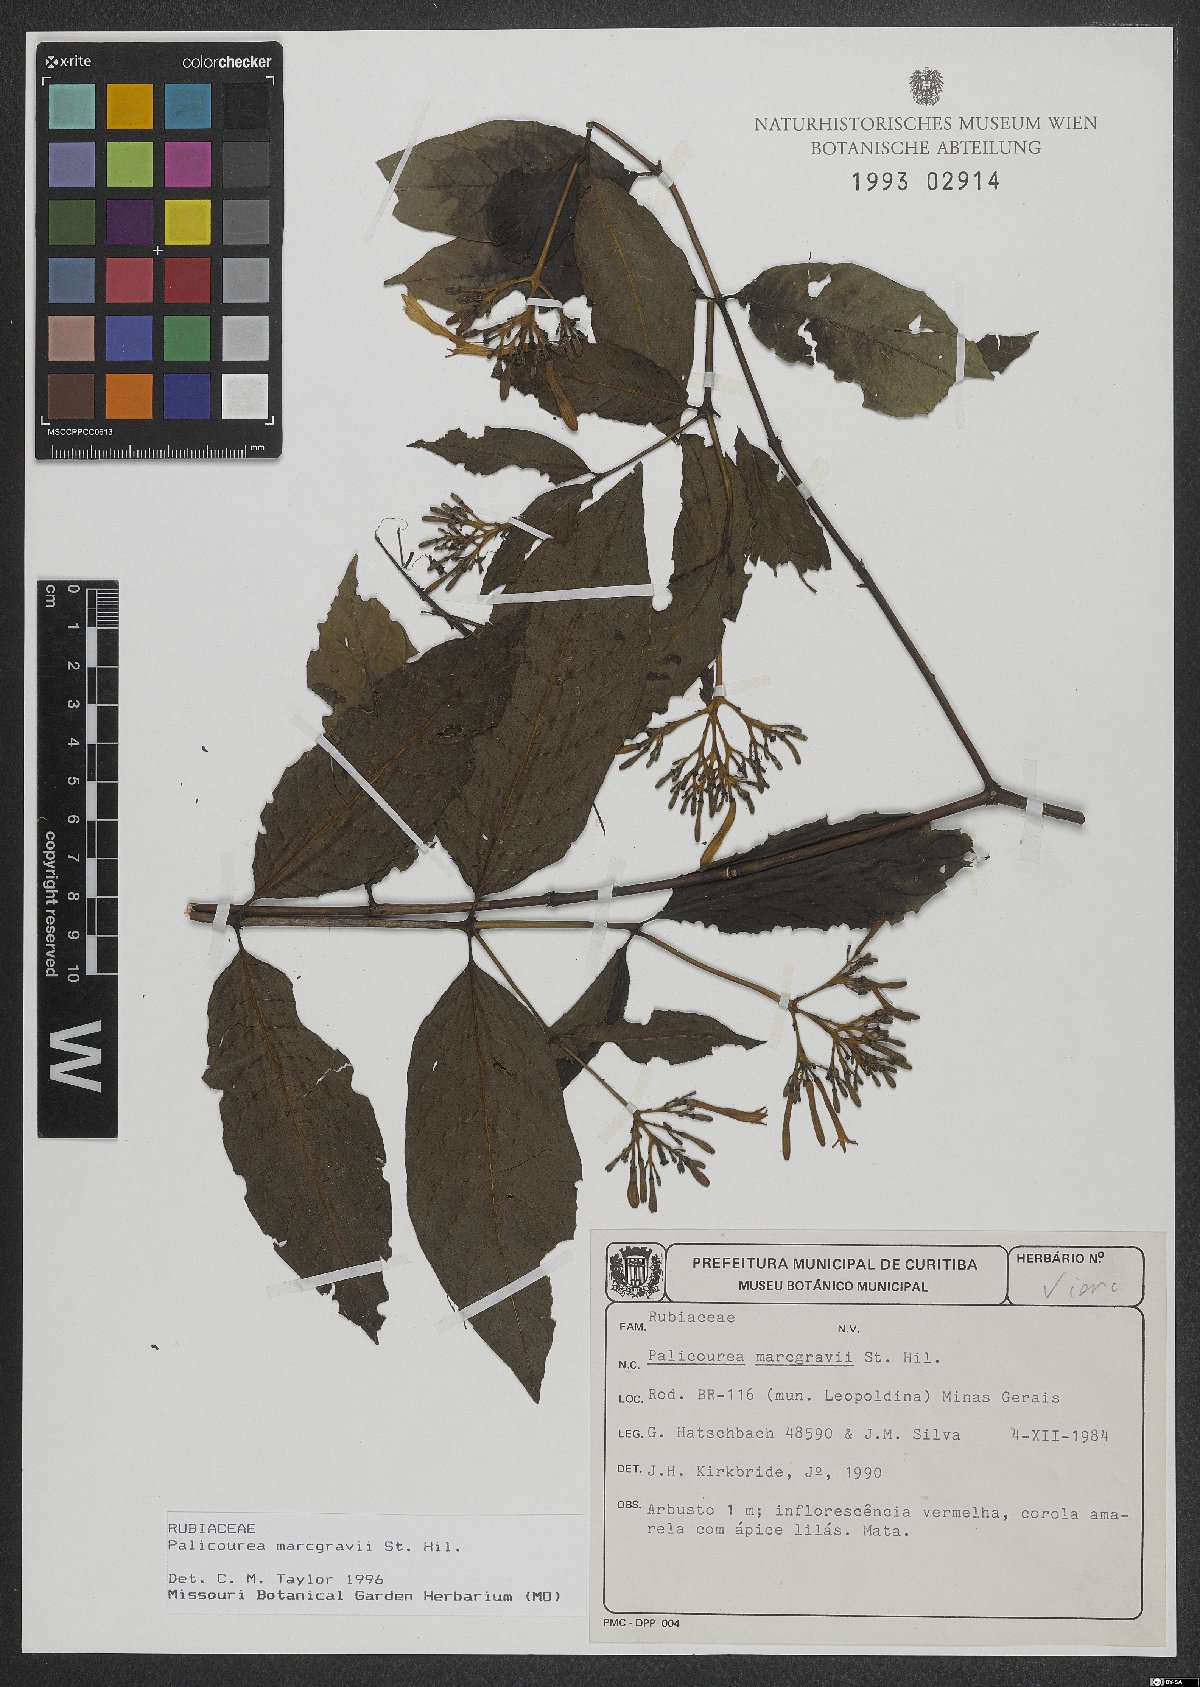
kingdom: Plantae
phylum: Tracheophyta
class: Magnoliopsida
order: Gentianales
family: Rubiaceae
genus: Palicourea
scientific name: Palicourea marcgravii
